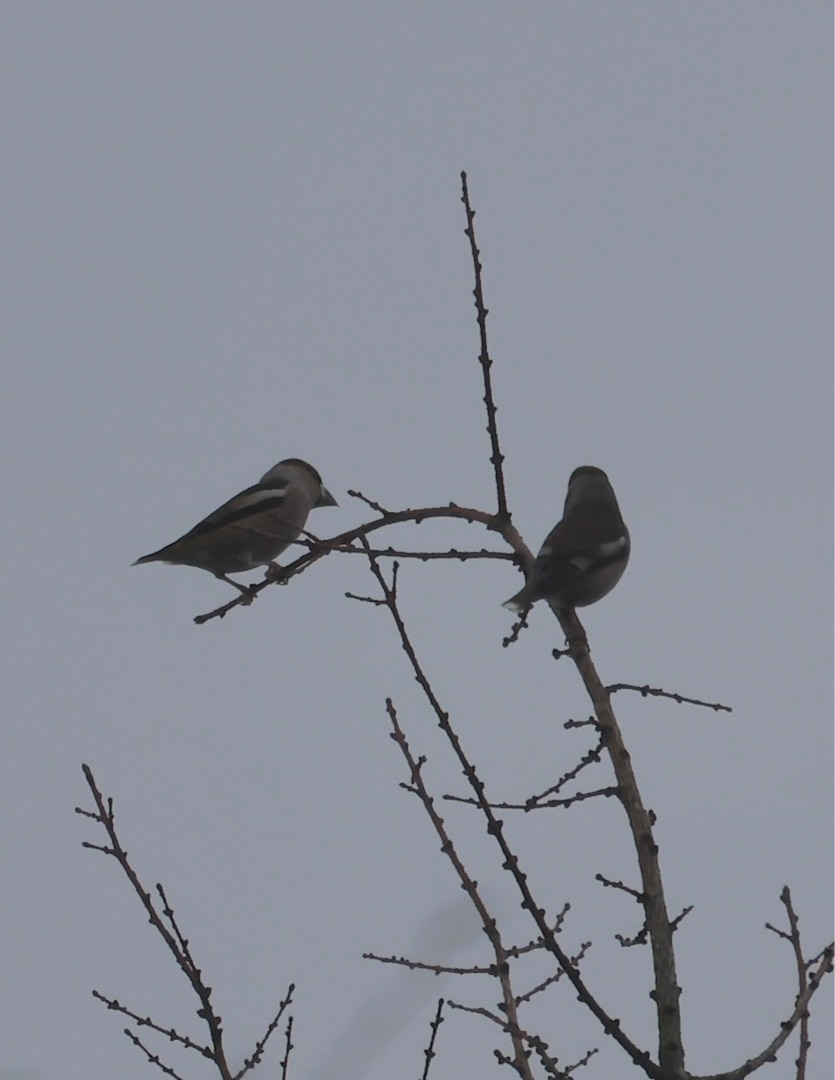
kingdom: Animalia
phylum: Chordata
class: Aves
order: Passeriformes
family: Fringillidae
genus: Coccothraustes
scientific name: Coccothraustes coccothraustes
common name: Kernebider
